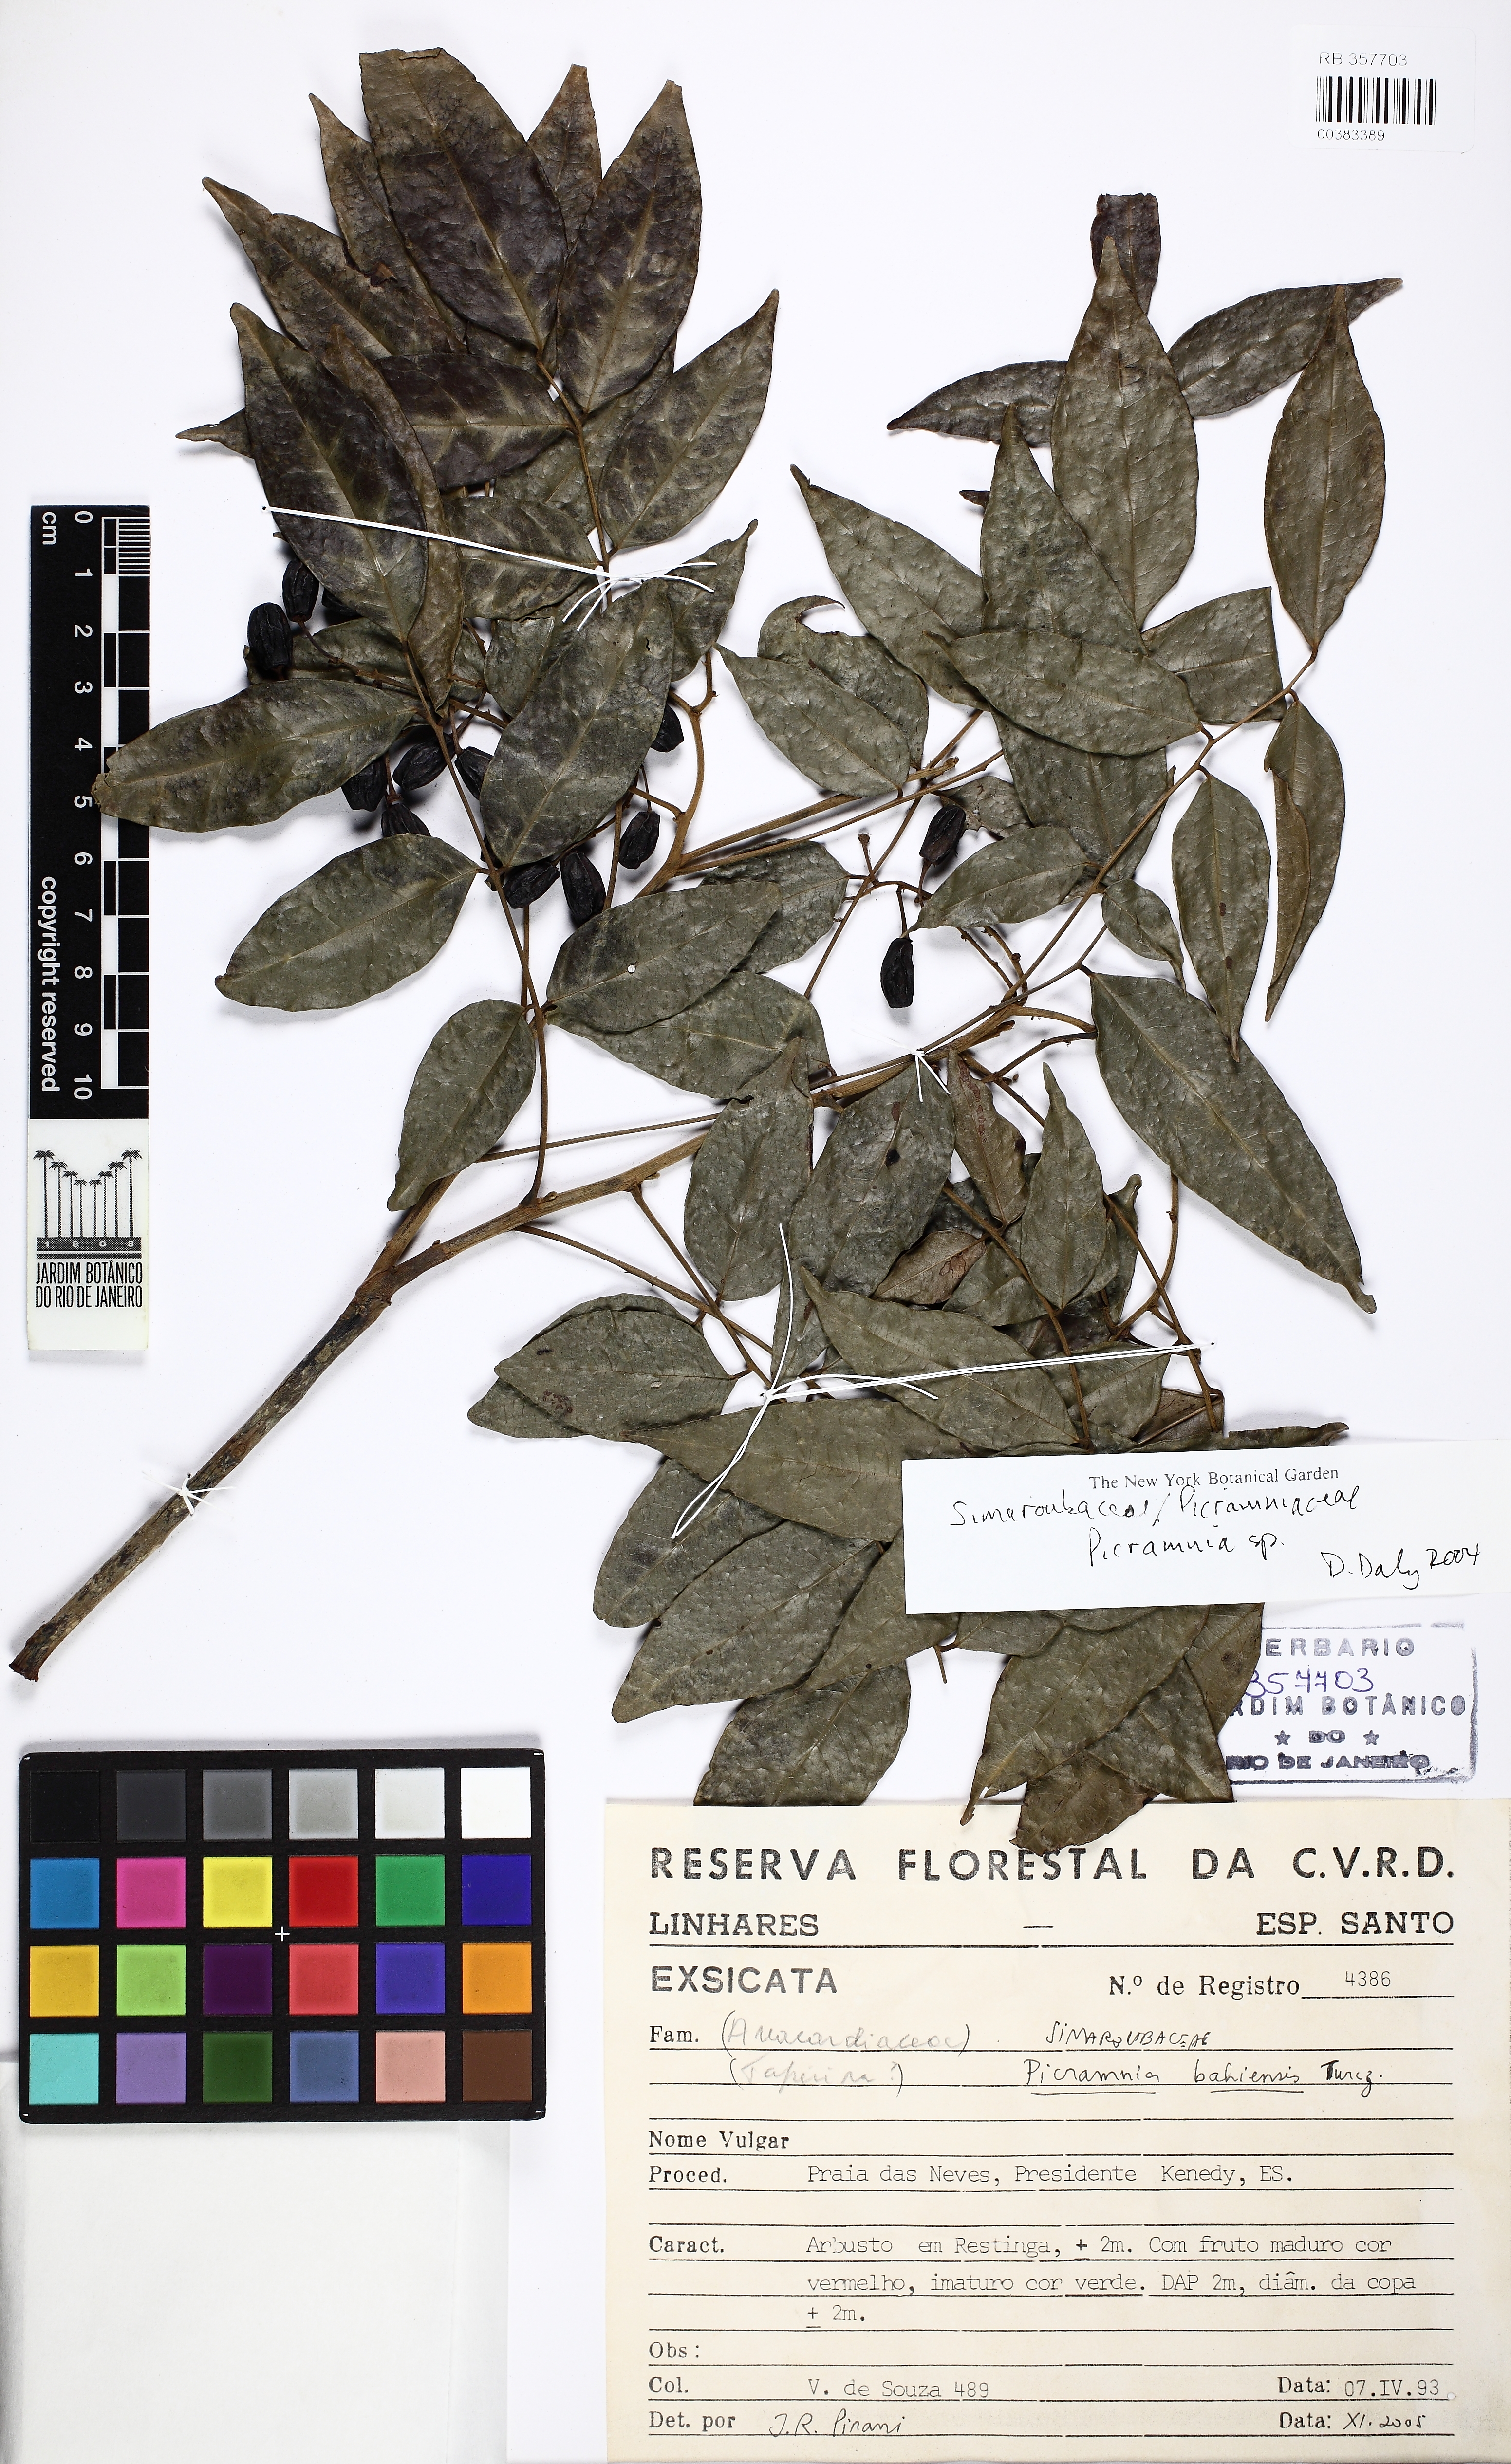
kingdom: Plantae
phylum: Tracheophyta
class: Magnoliopsida
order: Picramniales
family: Picramniaceae
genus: Picramnia
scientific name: Picramnia bahiensis
